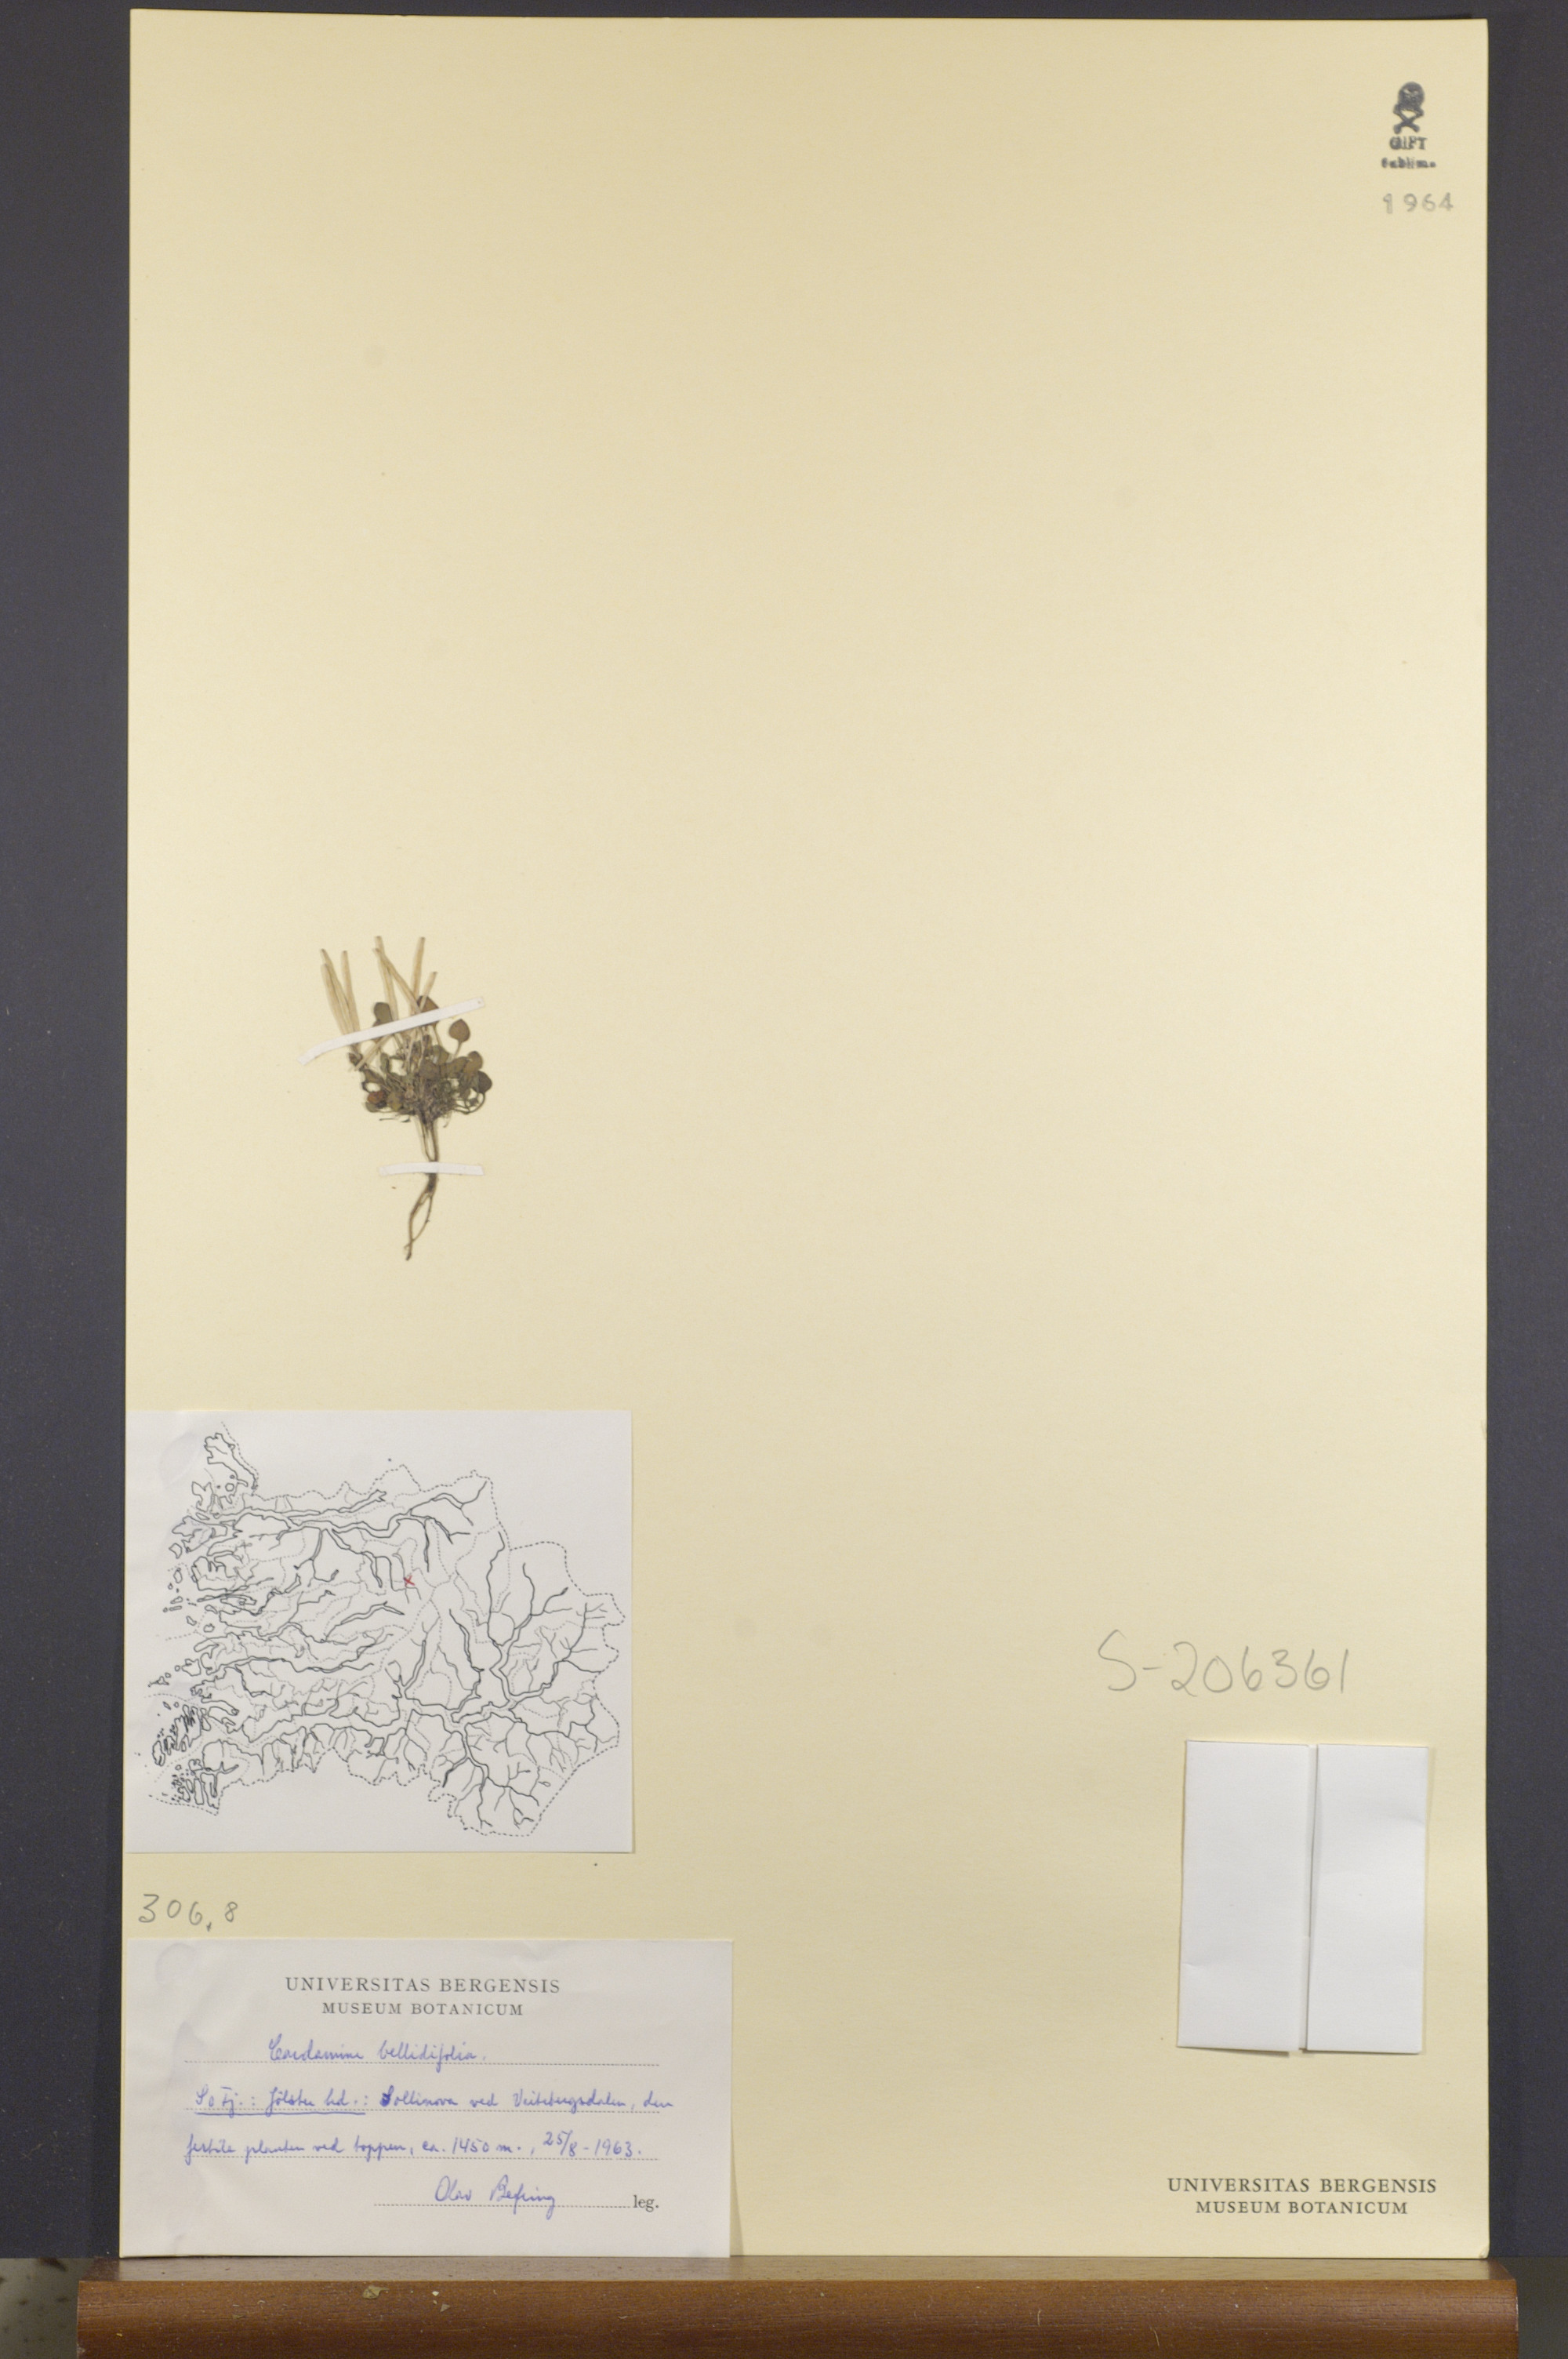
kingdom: Plantae
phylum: Tracheophyta
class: Magnoliopsida
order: Brassicales
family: Brassicaceae
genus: Cardamine
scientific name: Cardamine bellidifolia
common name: Alpine bittercress
